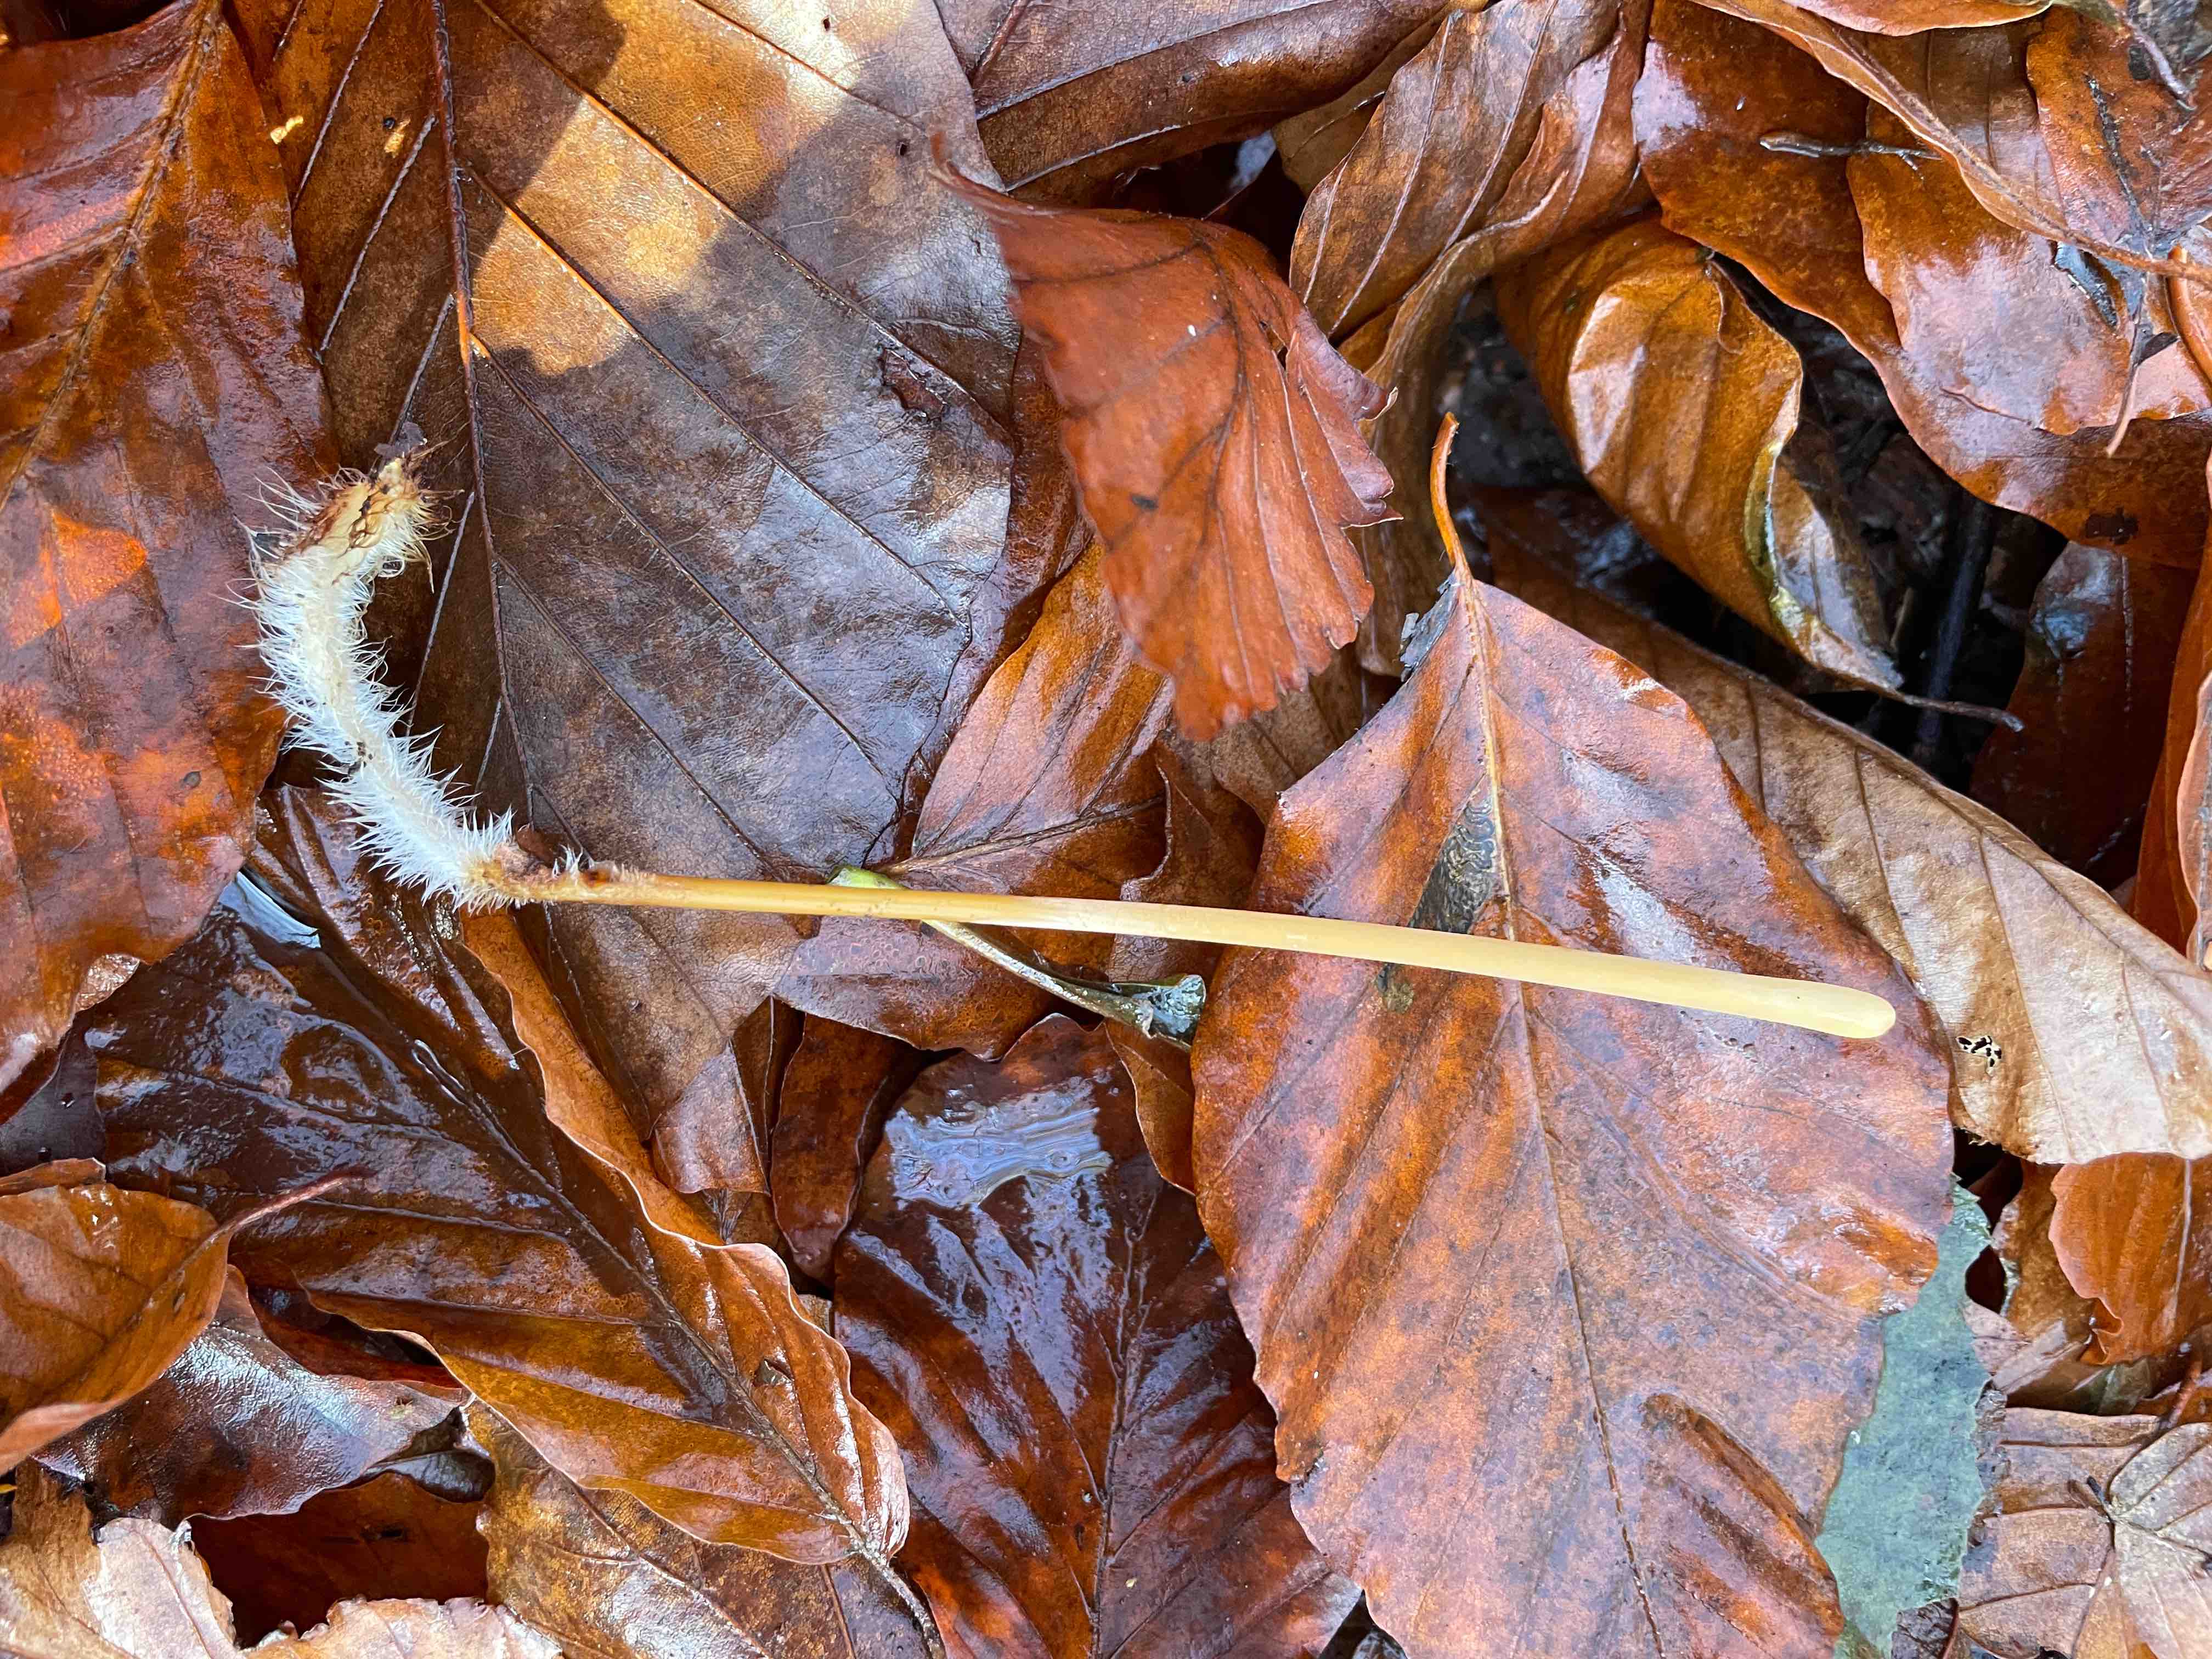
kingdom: Fungi
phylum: Basidiomycota
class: Agaricomycetes
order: Agaricales
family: Typhulaceae
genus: Typhula
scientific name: Typhula fistulosa
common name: pibet rørkølle
